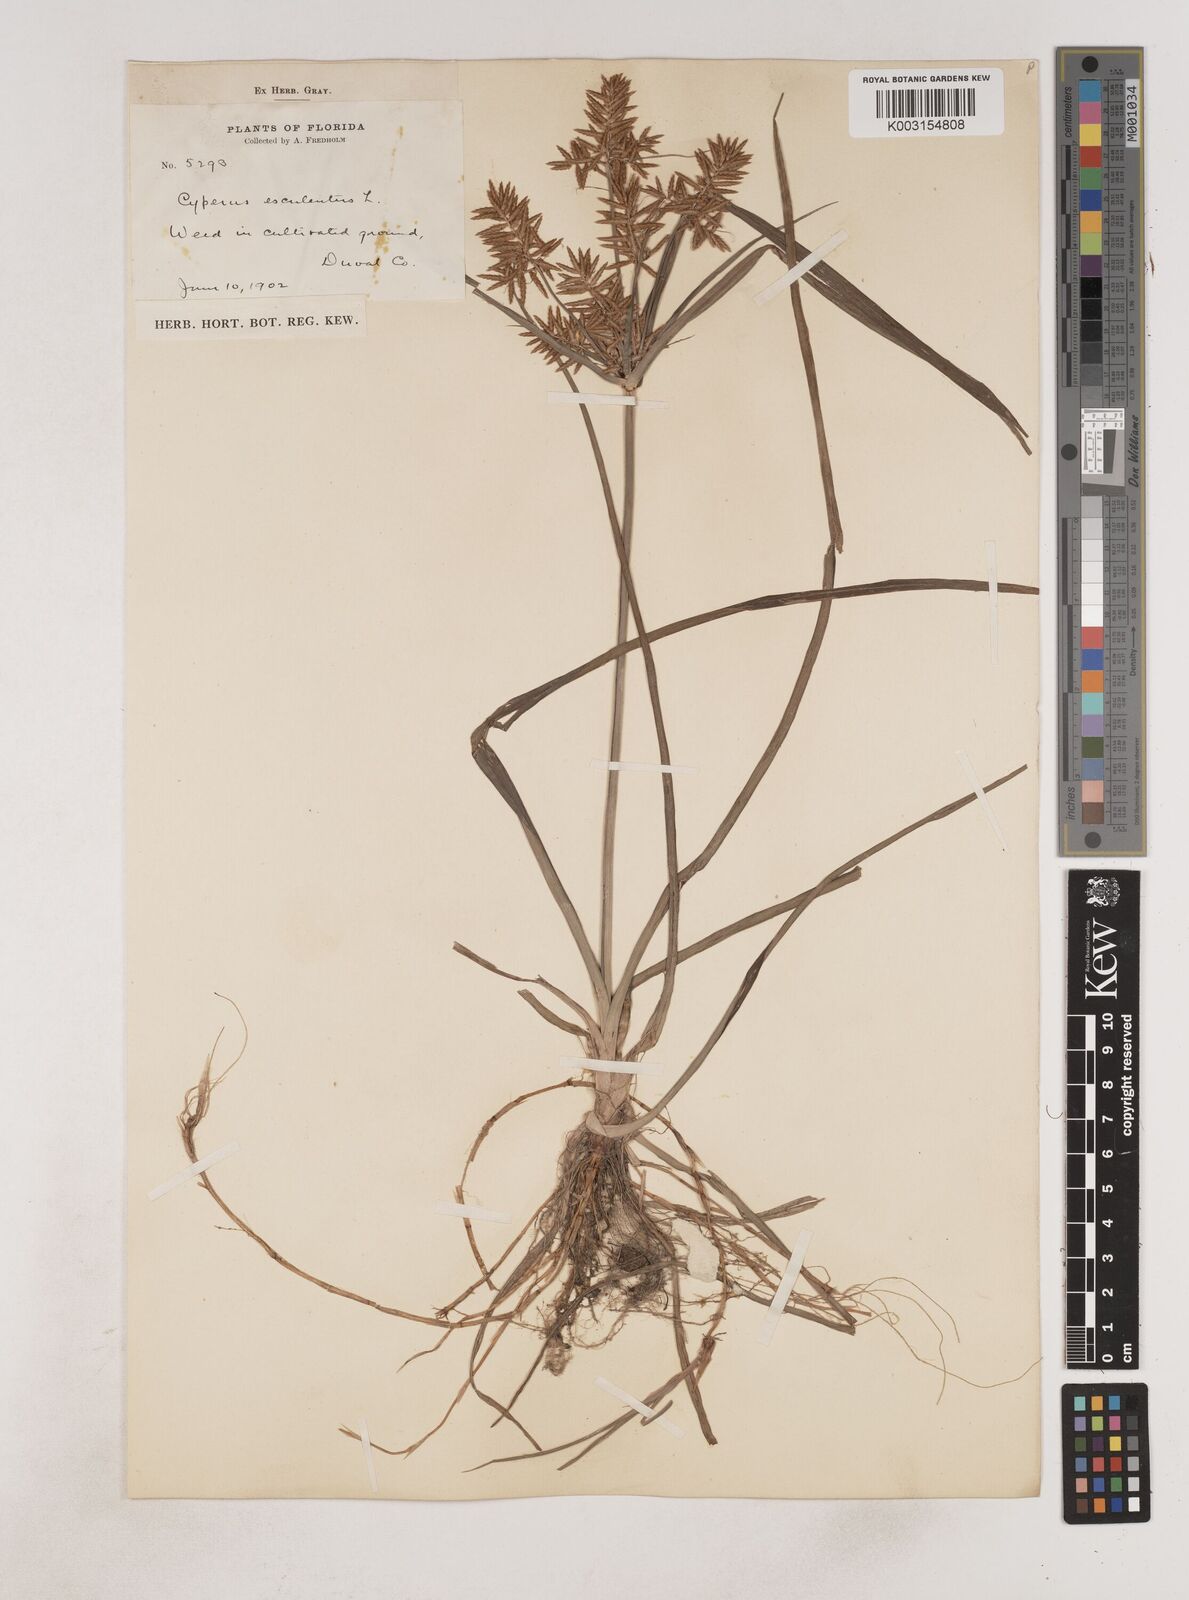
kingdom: Plantae
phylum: Tracheophyta
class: Liliopsida
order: Poales
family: Cyperaceae
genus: Cyperus
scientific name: Cyperus esculentus
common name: Yellow nutsedge
